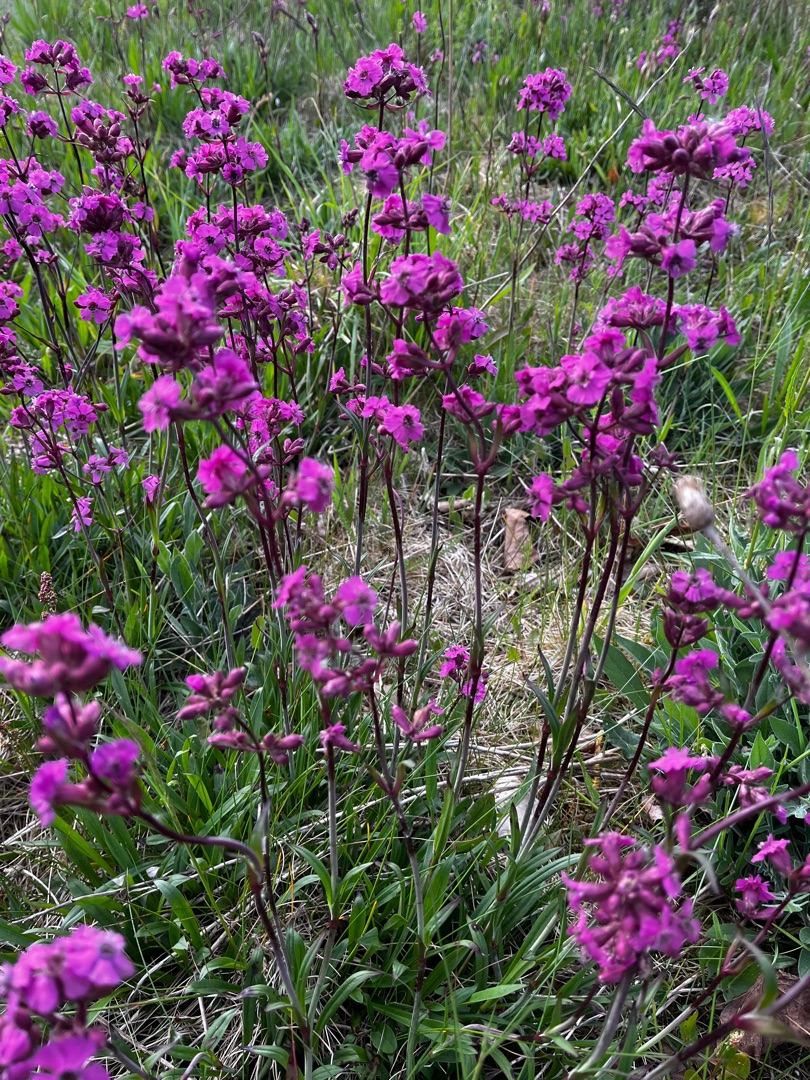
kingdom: Plantae
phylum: Tracheophyta
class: Magnoliopsida
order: Caryophyllales
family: Caryophyllaceae
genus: Viscaria
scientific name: Viscaria vulgaris
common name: Tjærenellike
